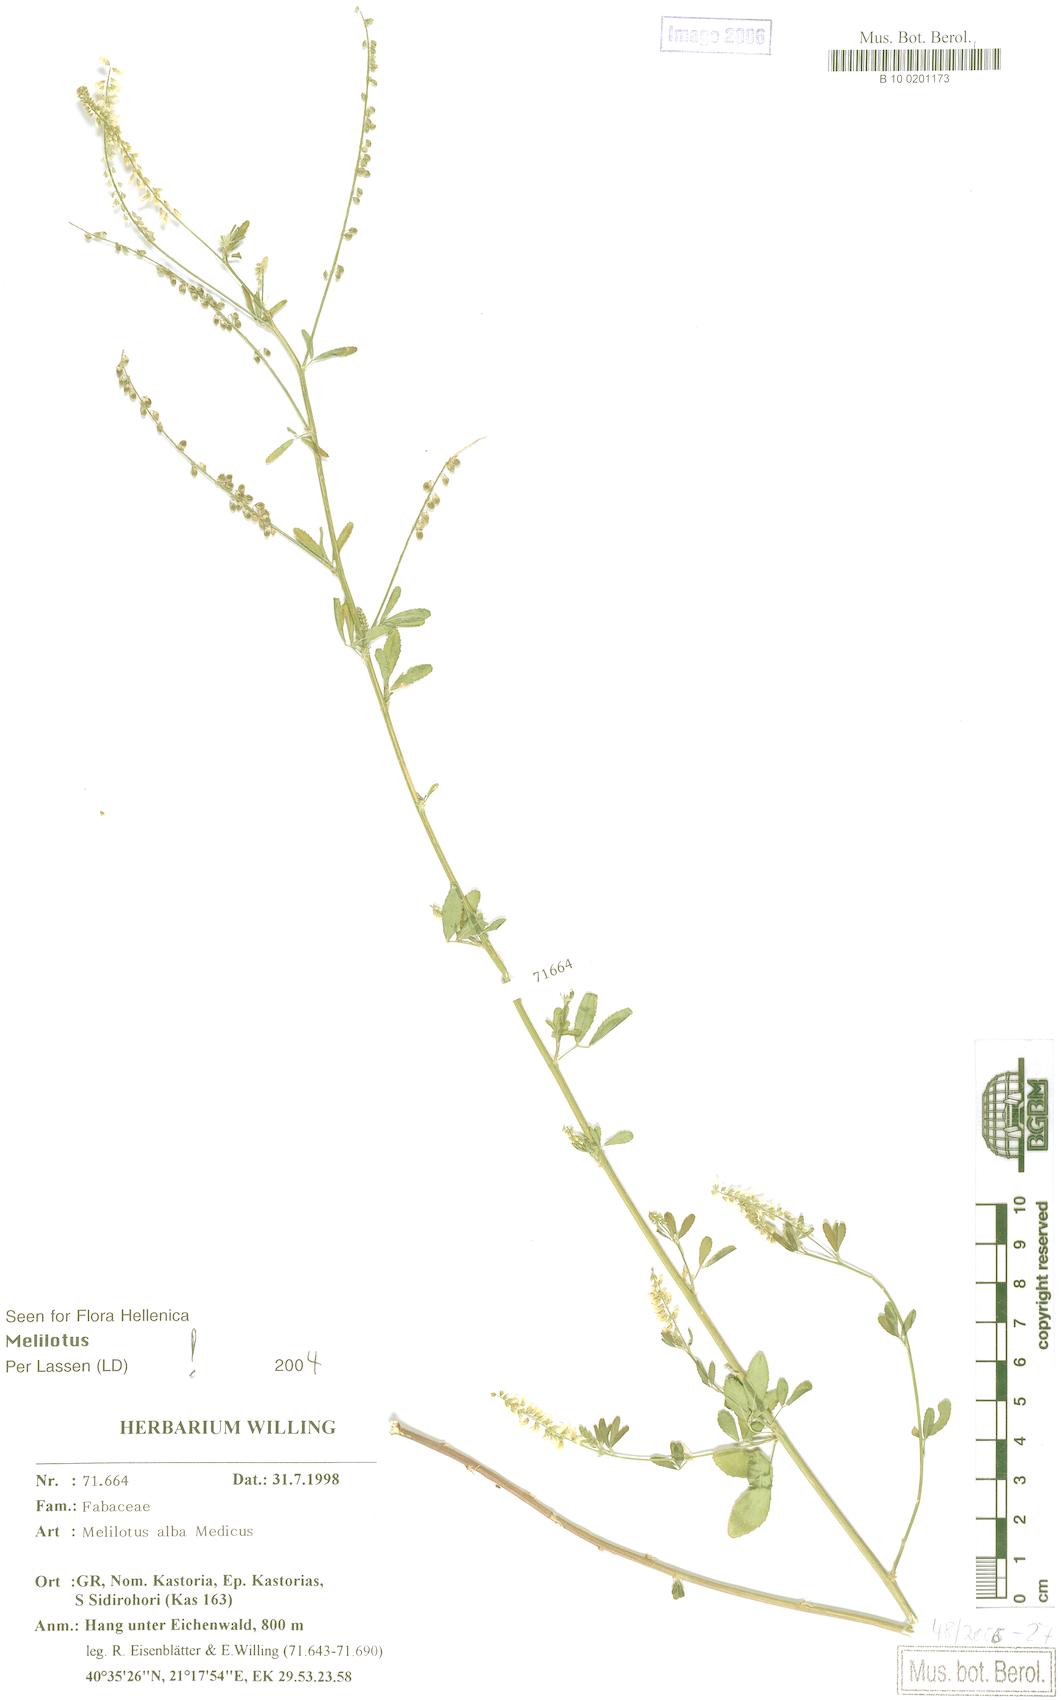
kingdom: Plantae
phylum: Tracheophyta
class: Magnoliopsida
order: Fabales
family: Fabaceae
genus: Melilotus
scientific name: Melilotus albus
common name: White melilot
